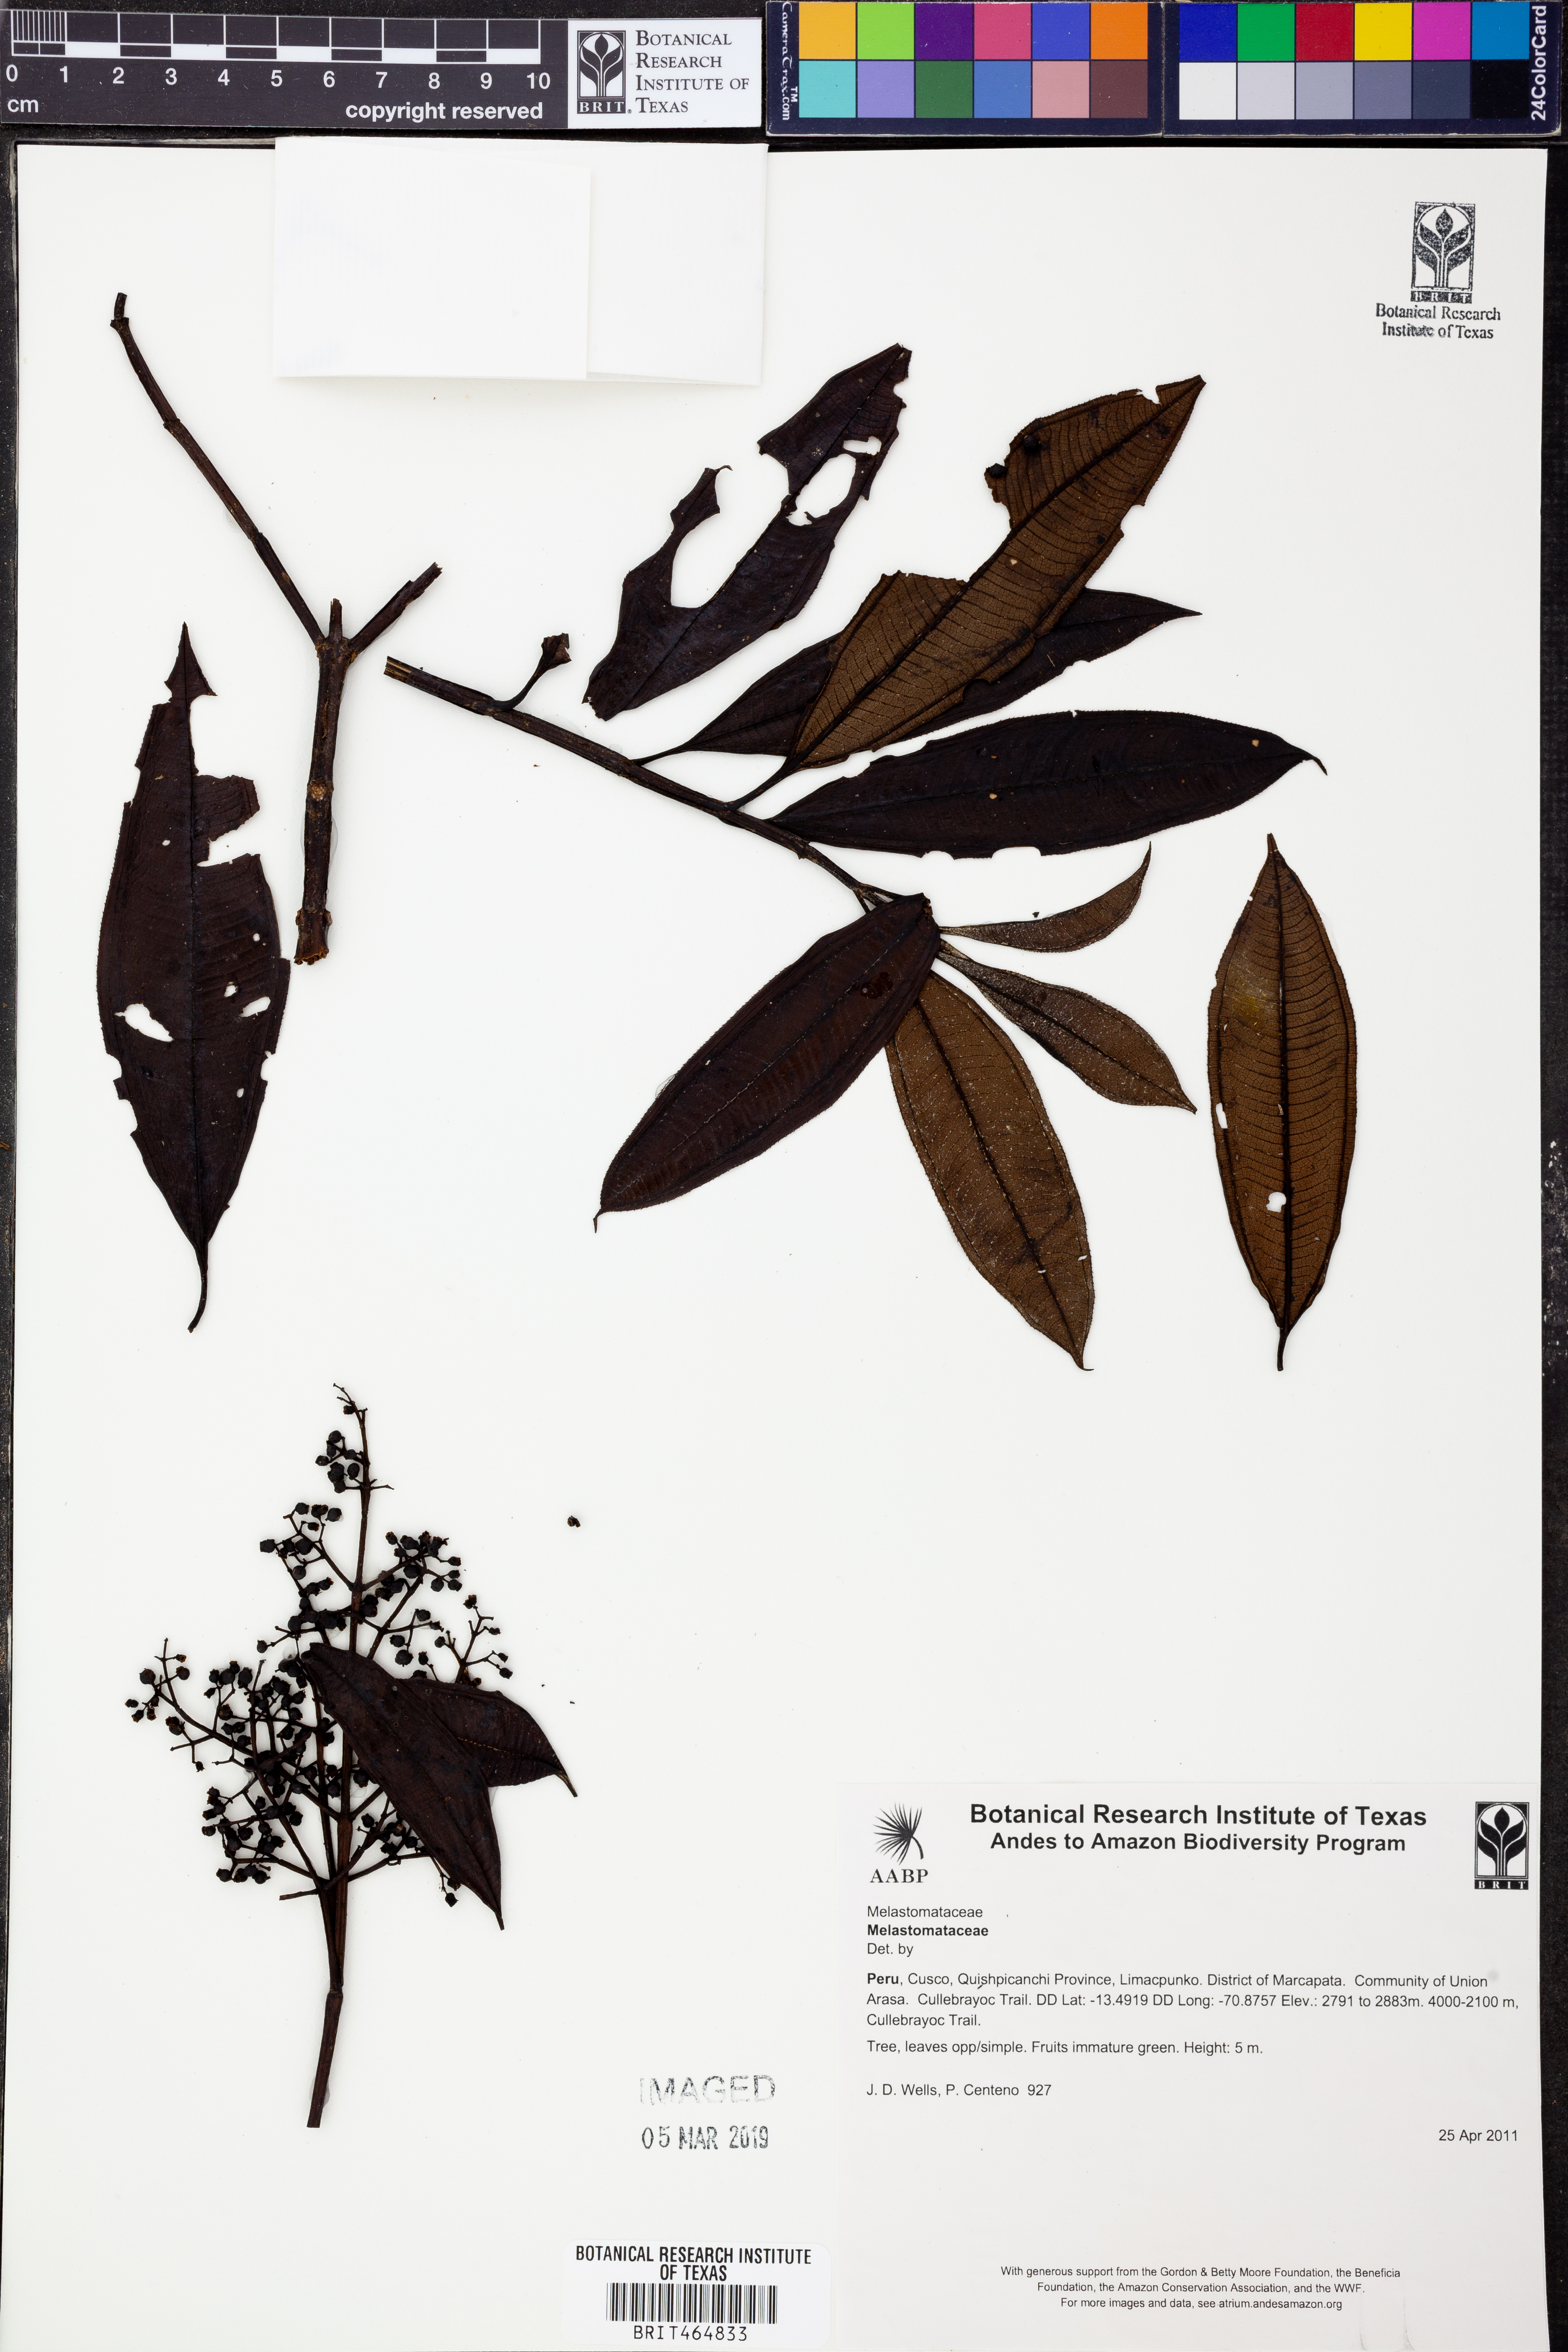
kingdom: Plantae
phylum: Tracheophyta
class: Magnoliopsida
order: Myrtales
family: Melastomataceae
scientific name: Melastomataceae
